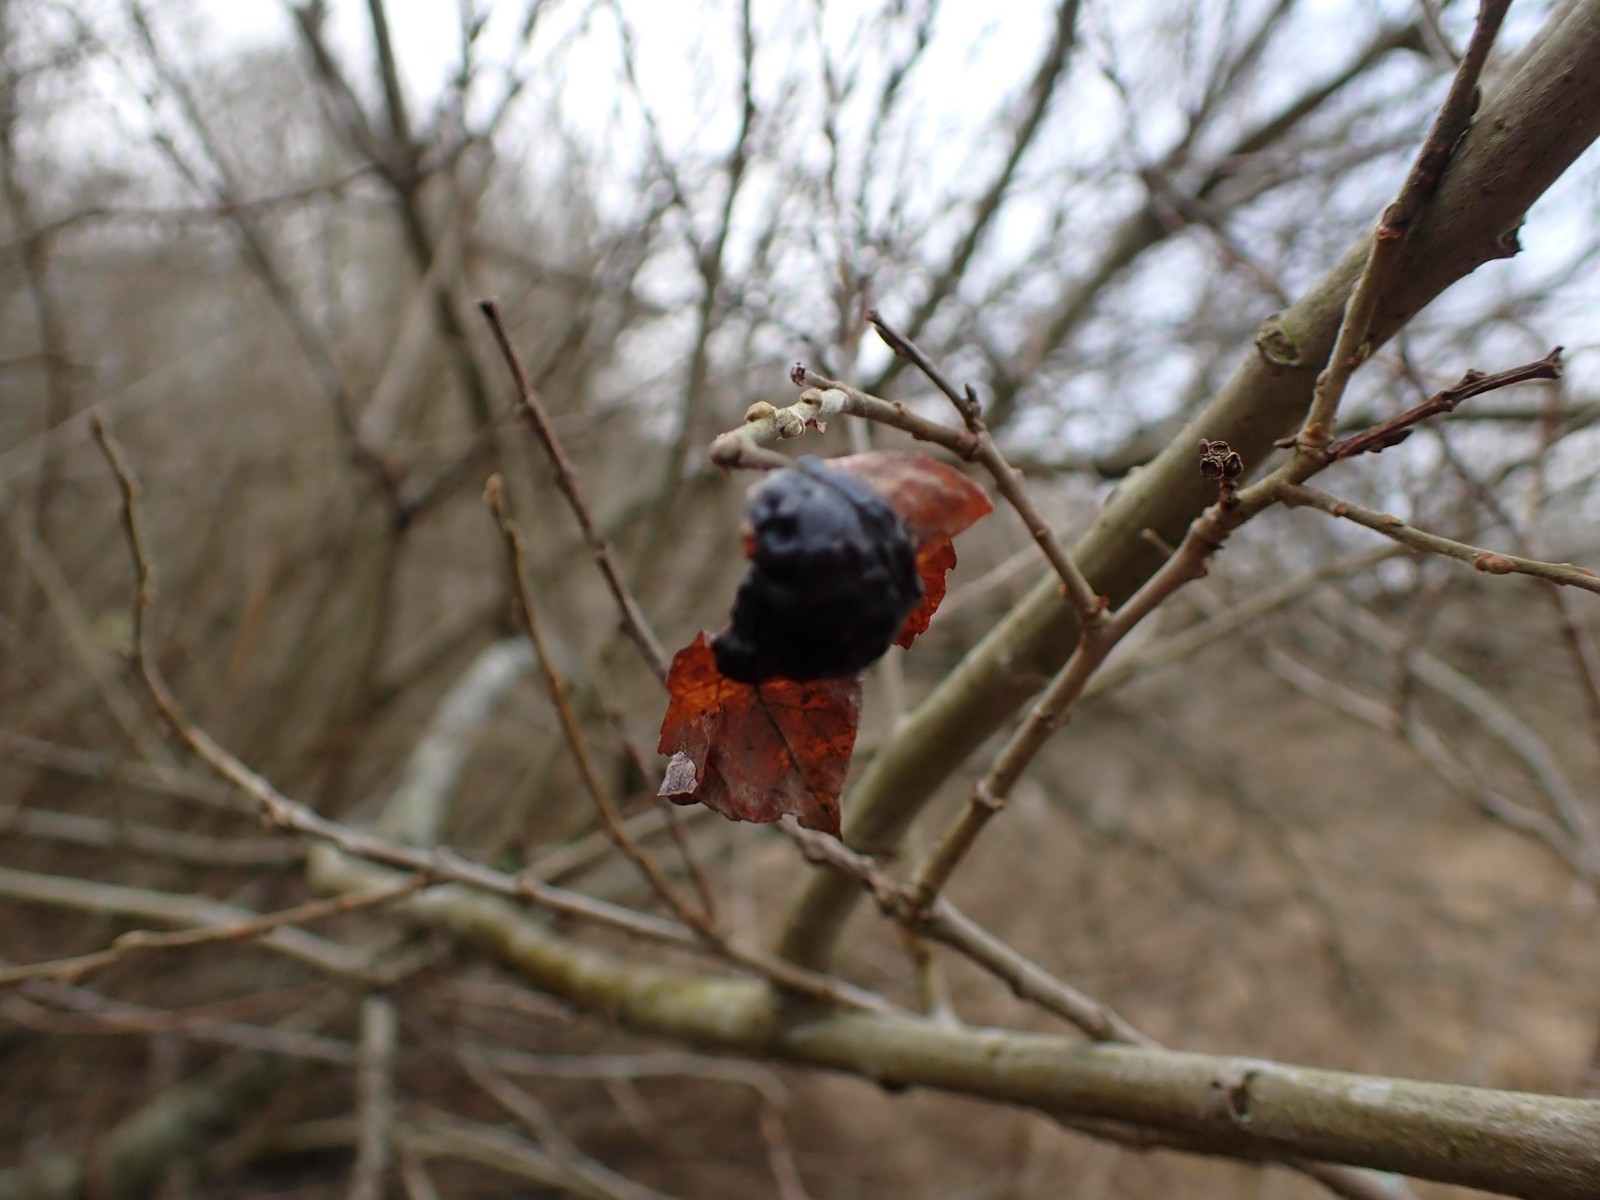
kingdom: Fungi
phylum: Ascomycota
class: Leotiomycetes
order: Rhytismatales
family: Rhytismataceae
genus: Rhytisma
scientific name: Rhytisma salicinum
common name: pile-rynkeplet
